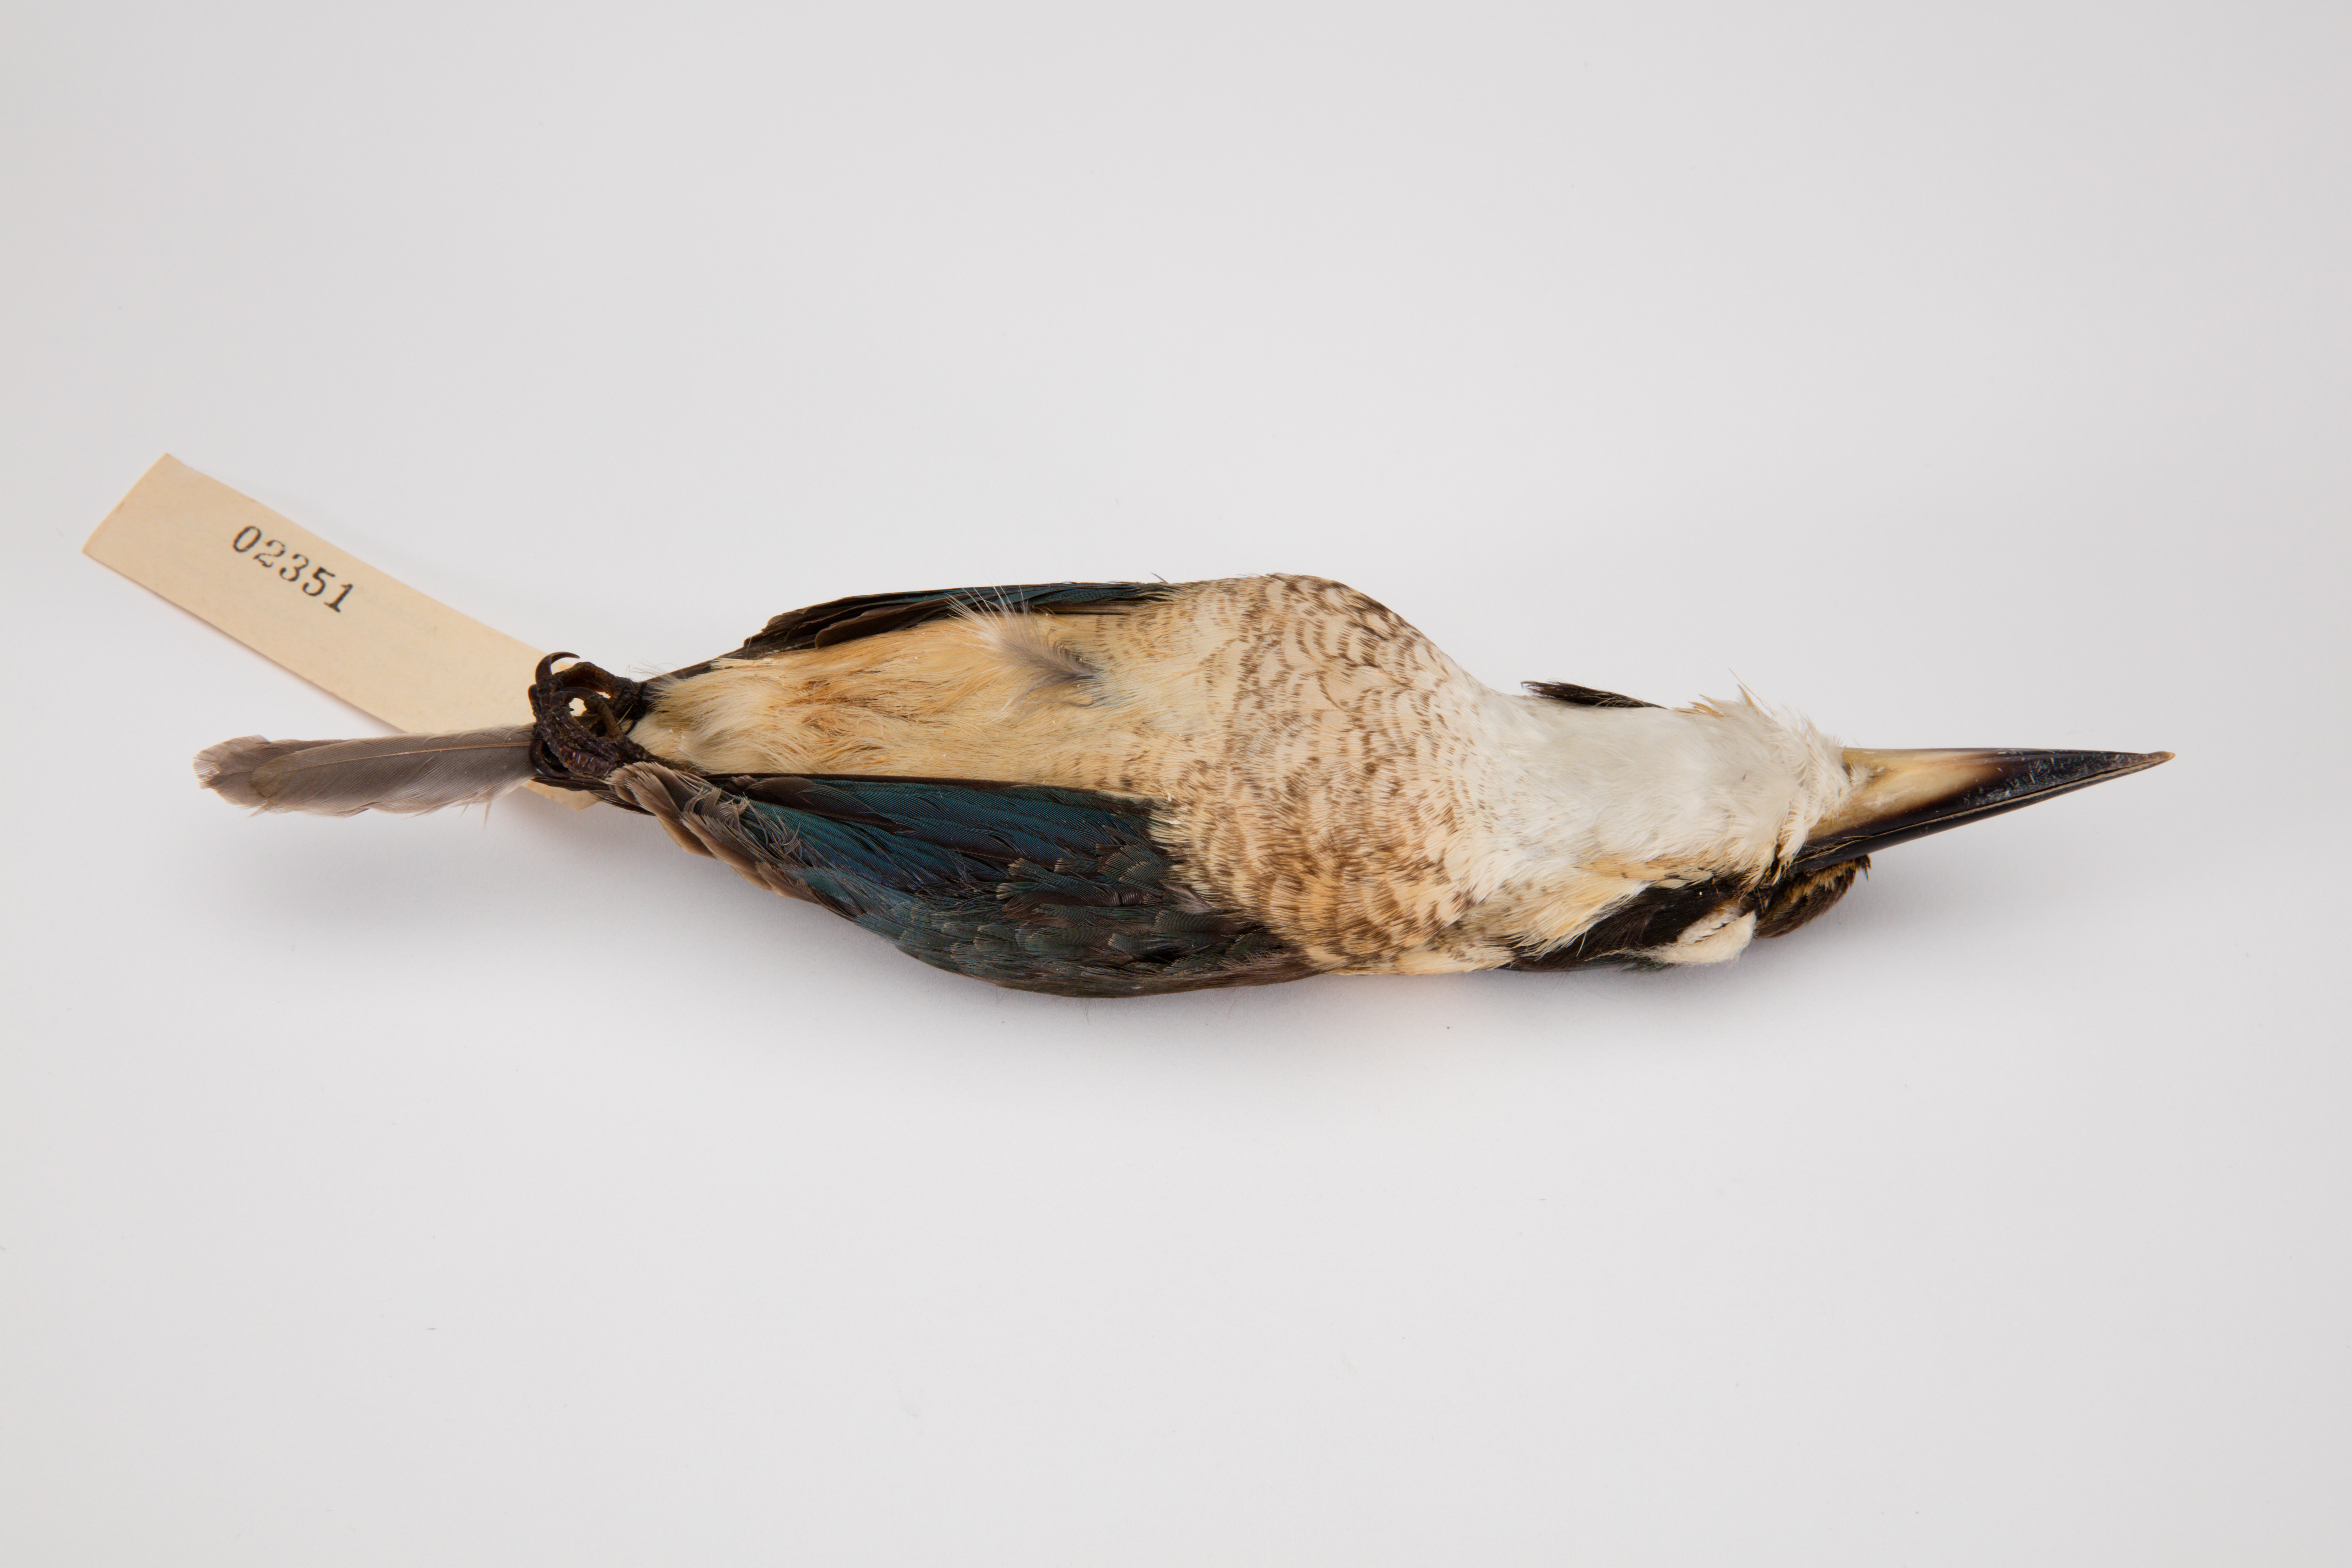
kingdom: Animalia
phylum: Chordata
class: Aves
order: Coraciiformes
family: Alcedinidae
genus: Todiramphus
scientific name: Todiramphus sanctus
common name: Sacred kingfisher
